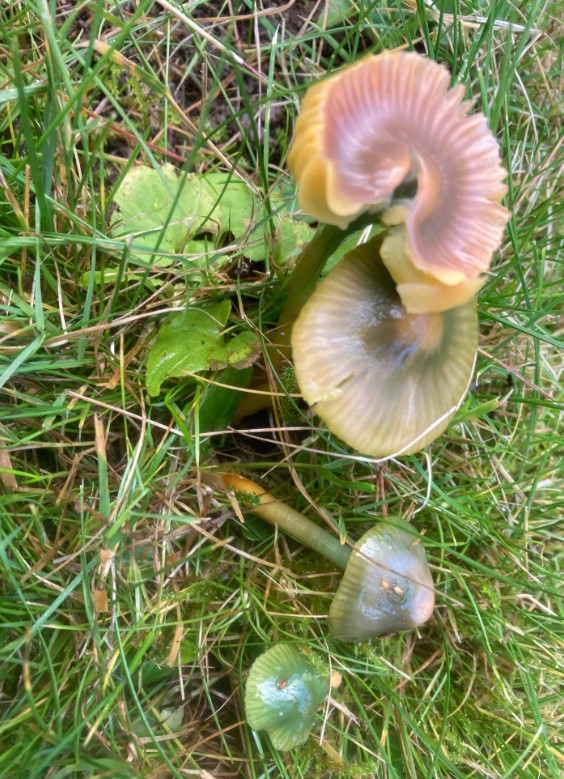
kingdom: Fungi
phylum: Basidiomycota
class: Agaricomycetes
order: Agaricales
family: Hygrophoraceae
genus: Gliophorus
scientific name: Gliophorus psittacinus
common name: papegøje-vokshat
